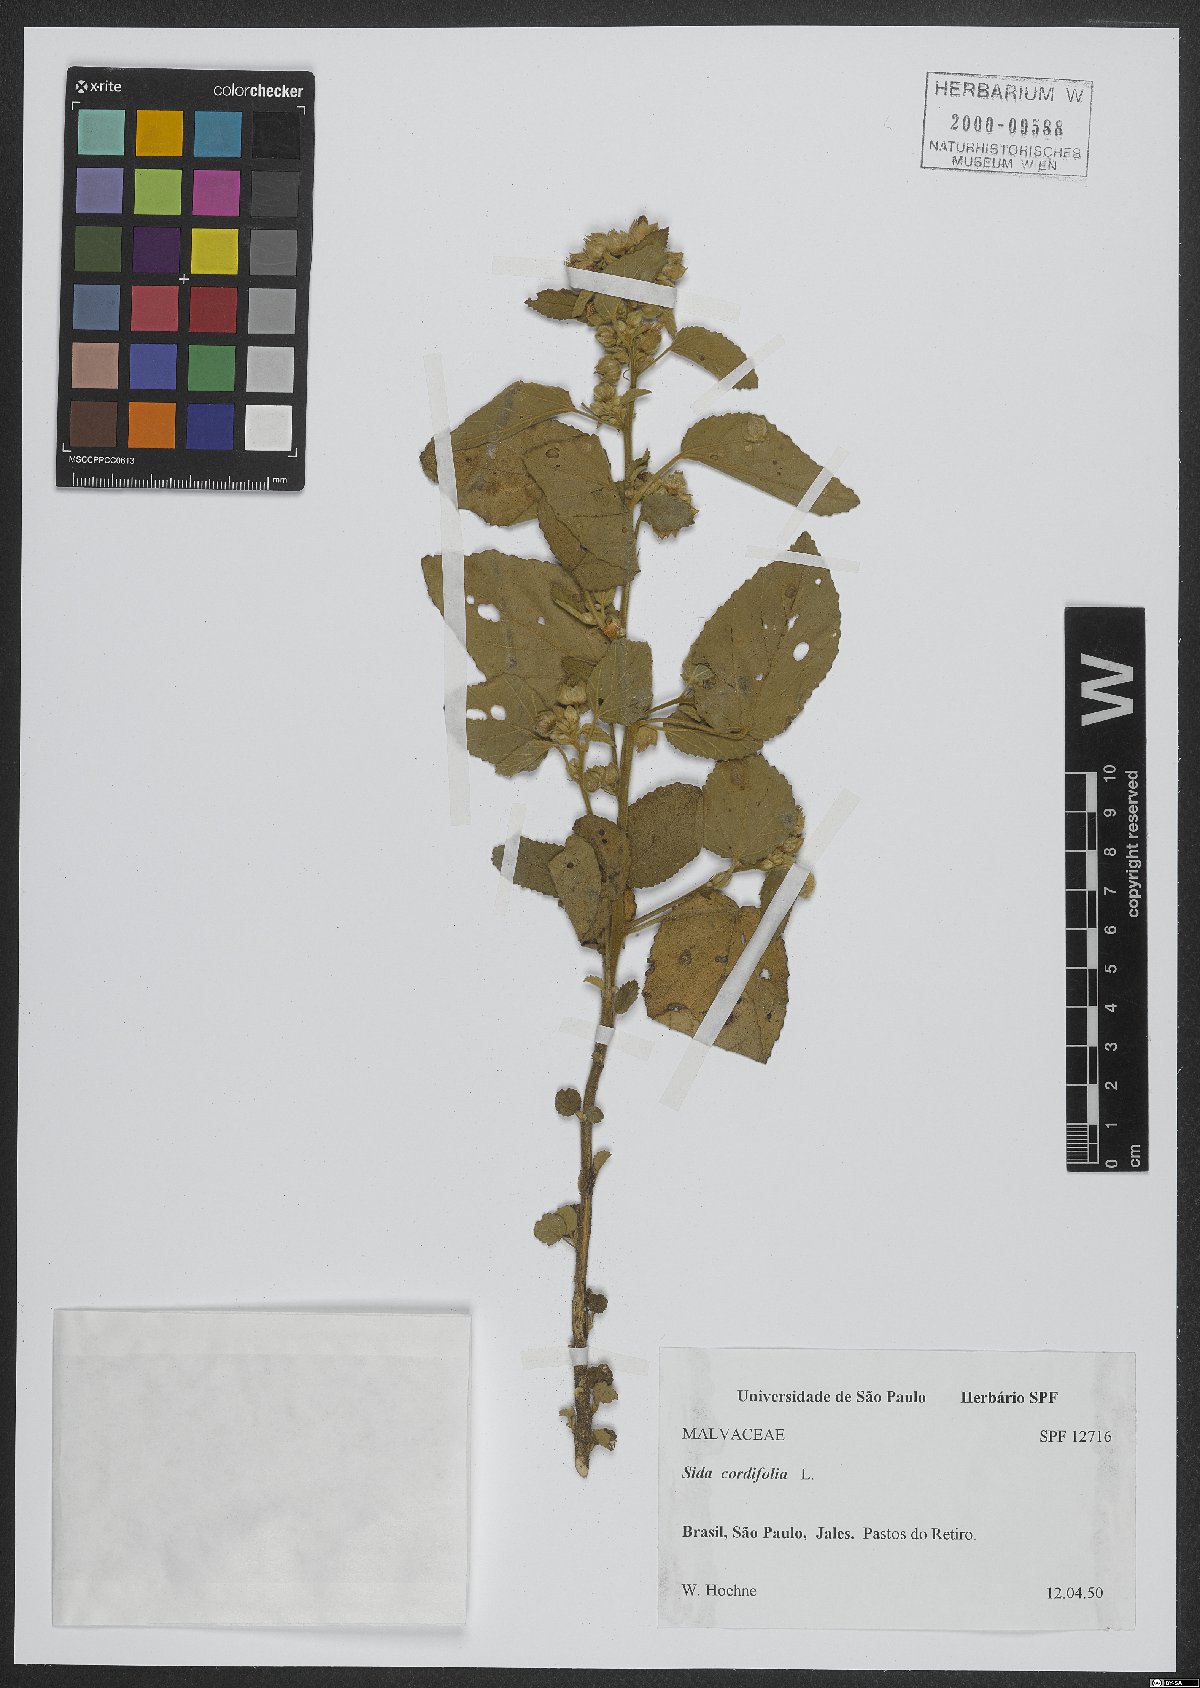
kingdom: Plantae
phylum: Tracheophyta
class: Magnoliopsida
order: Malvales
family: Malvaceae
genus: Sida
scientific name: Sida cordifolia
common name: Ilima
